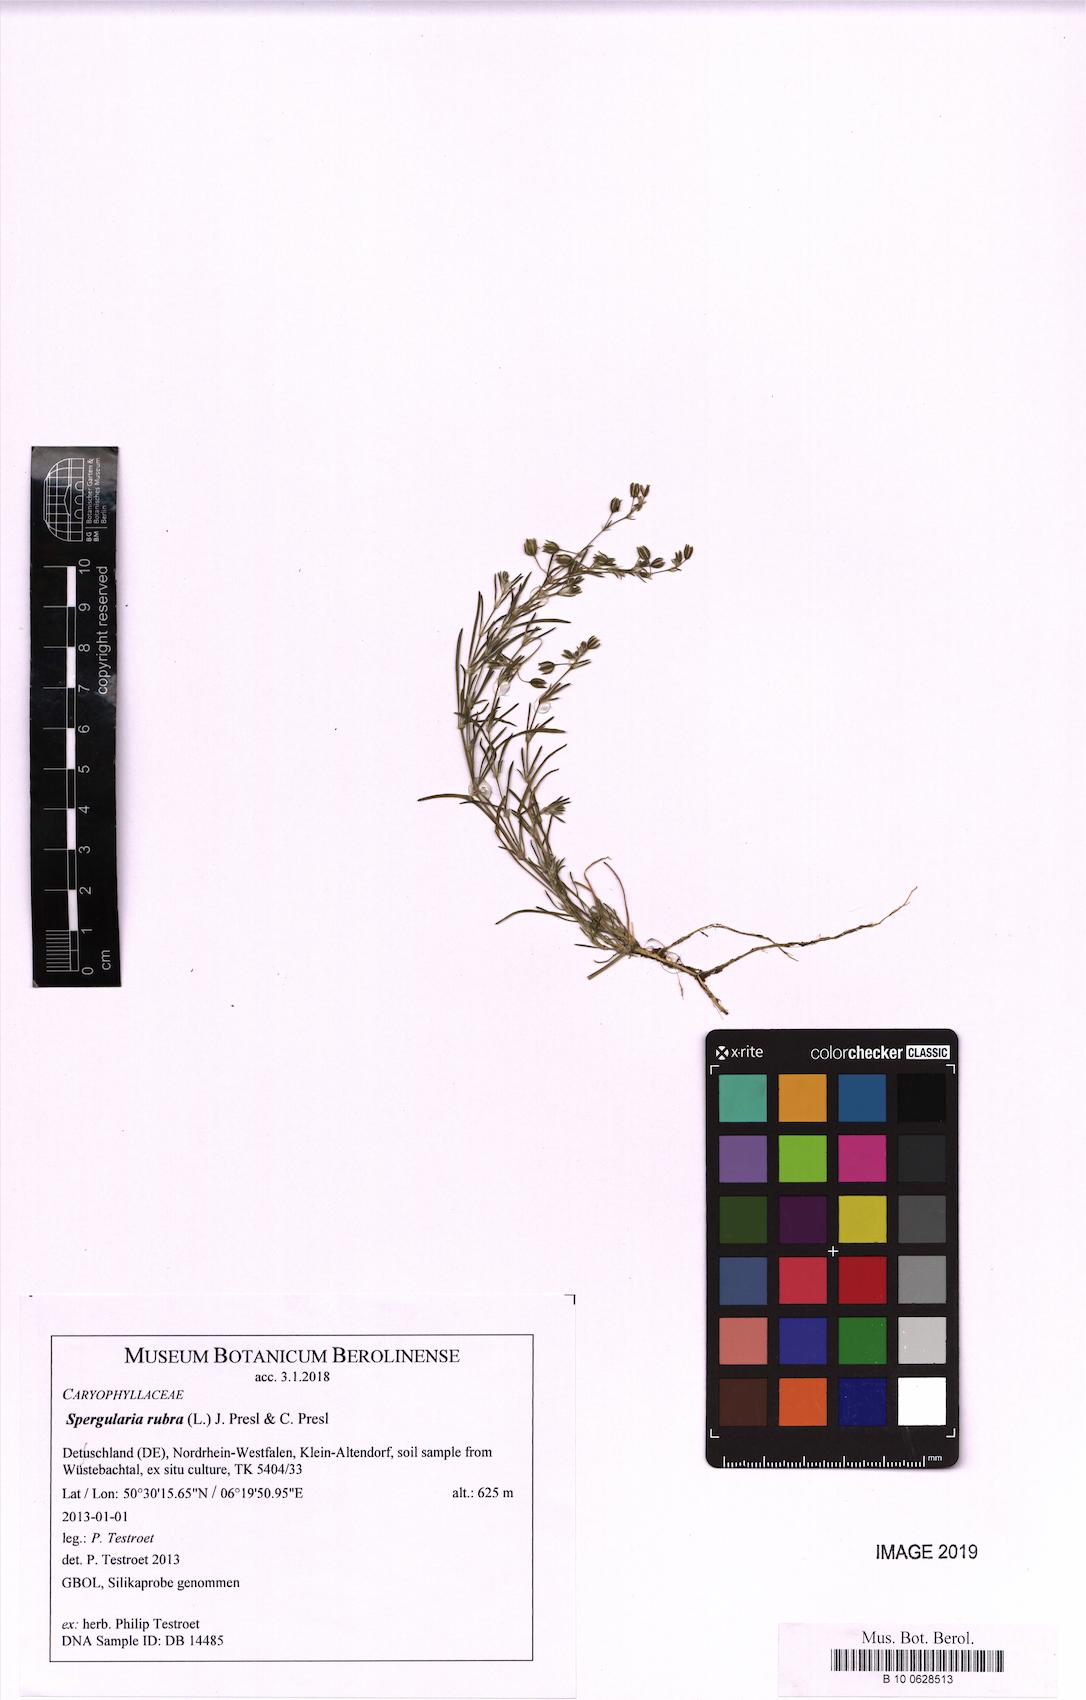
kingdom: Plantae
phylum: Tracheophyta
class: Magnoliopsida
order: Caryophyllales
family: Caryophyllaceae
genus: Spergularia
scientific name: Spergularia rubra
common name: Red sand-spurrey
